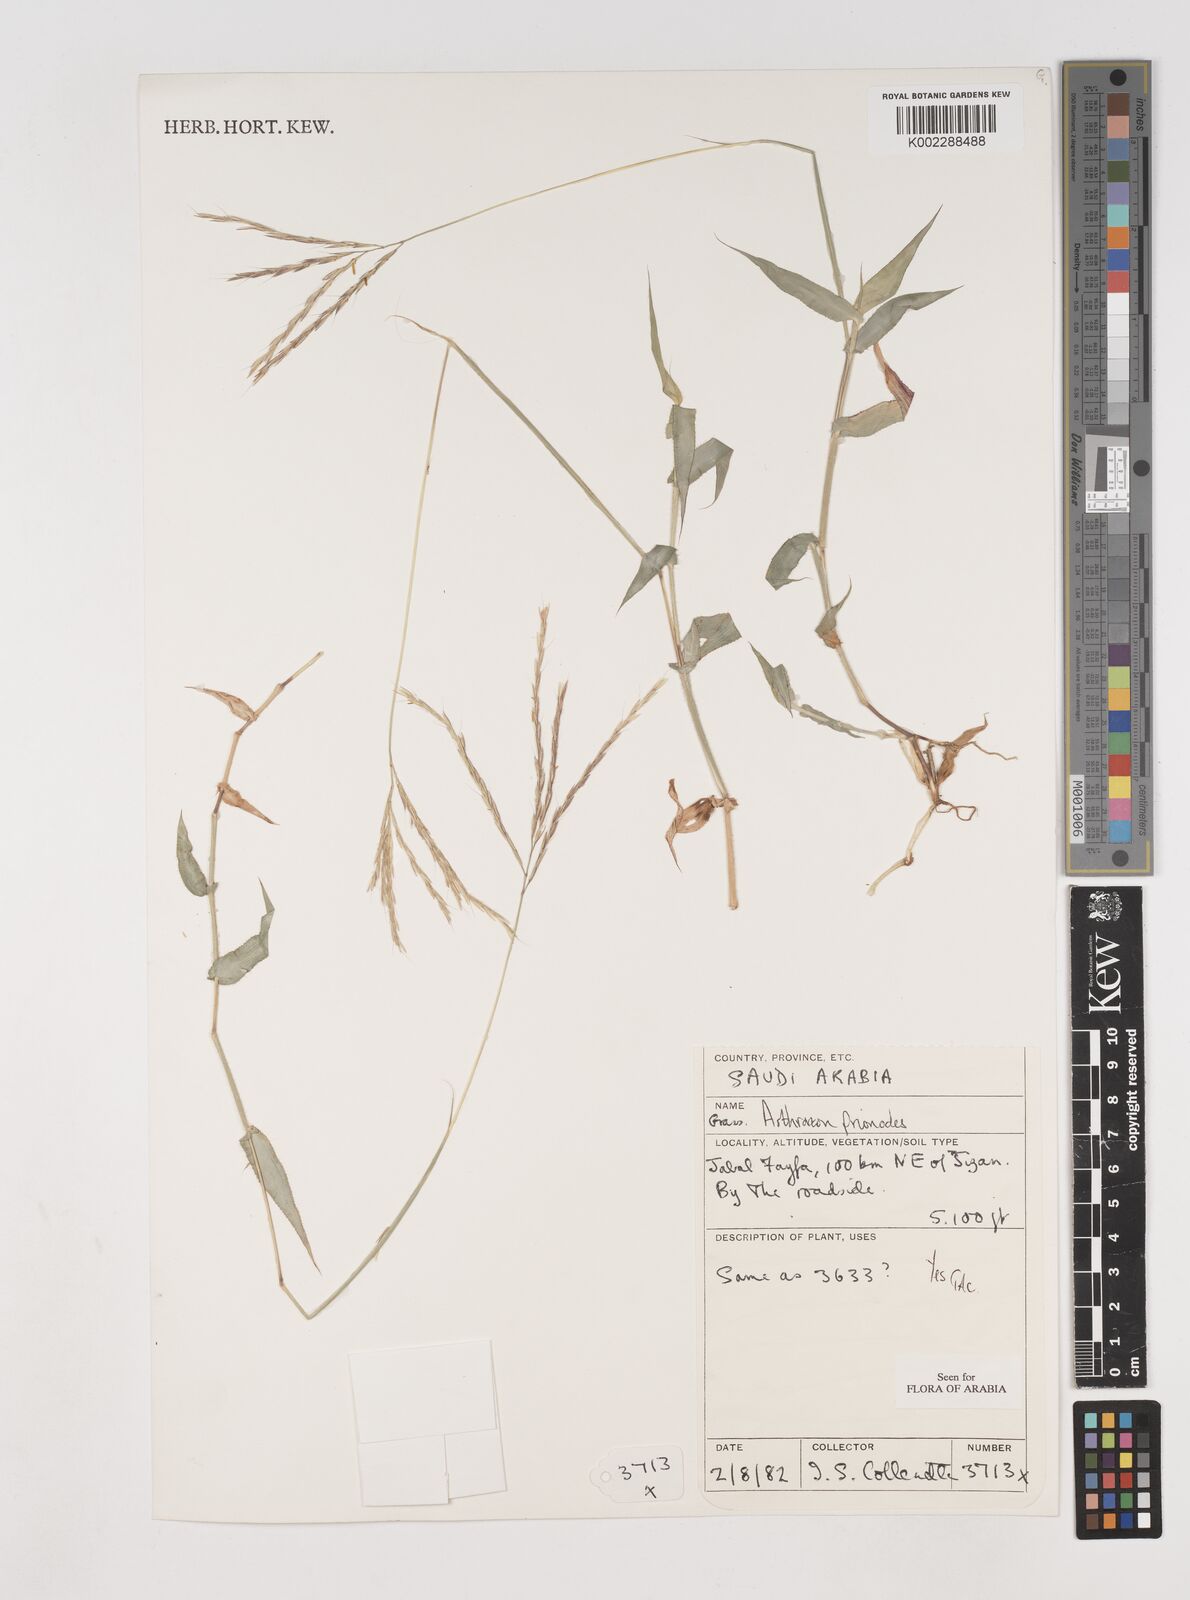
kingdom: Plantae
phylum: Tracheophyta
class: Liliopsida
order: Poales
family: Poaceae
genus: Arthraxon
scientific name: Arthraxon prionodes
